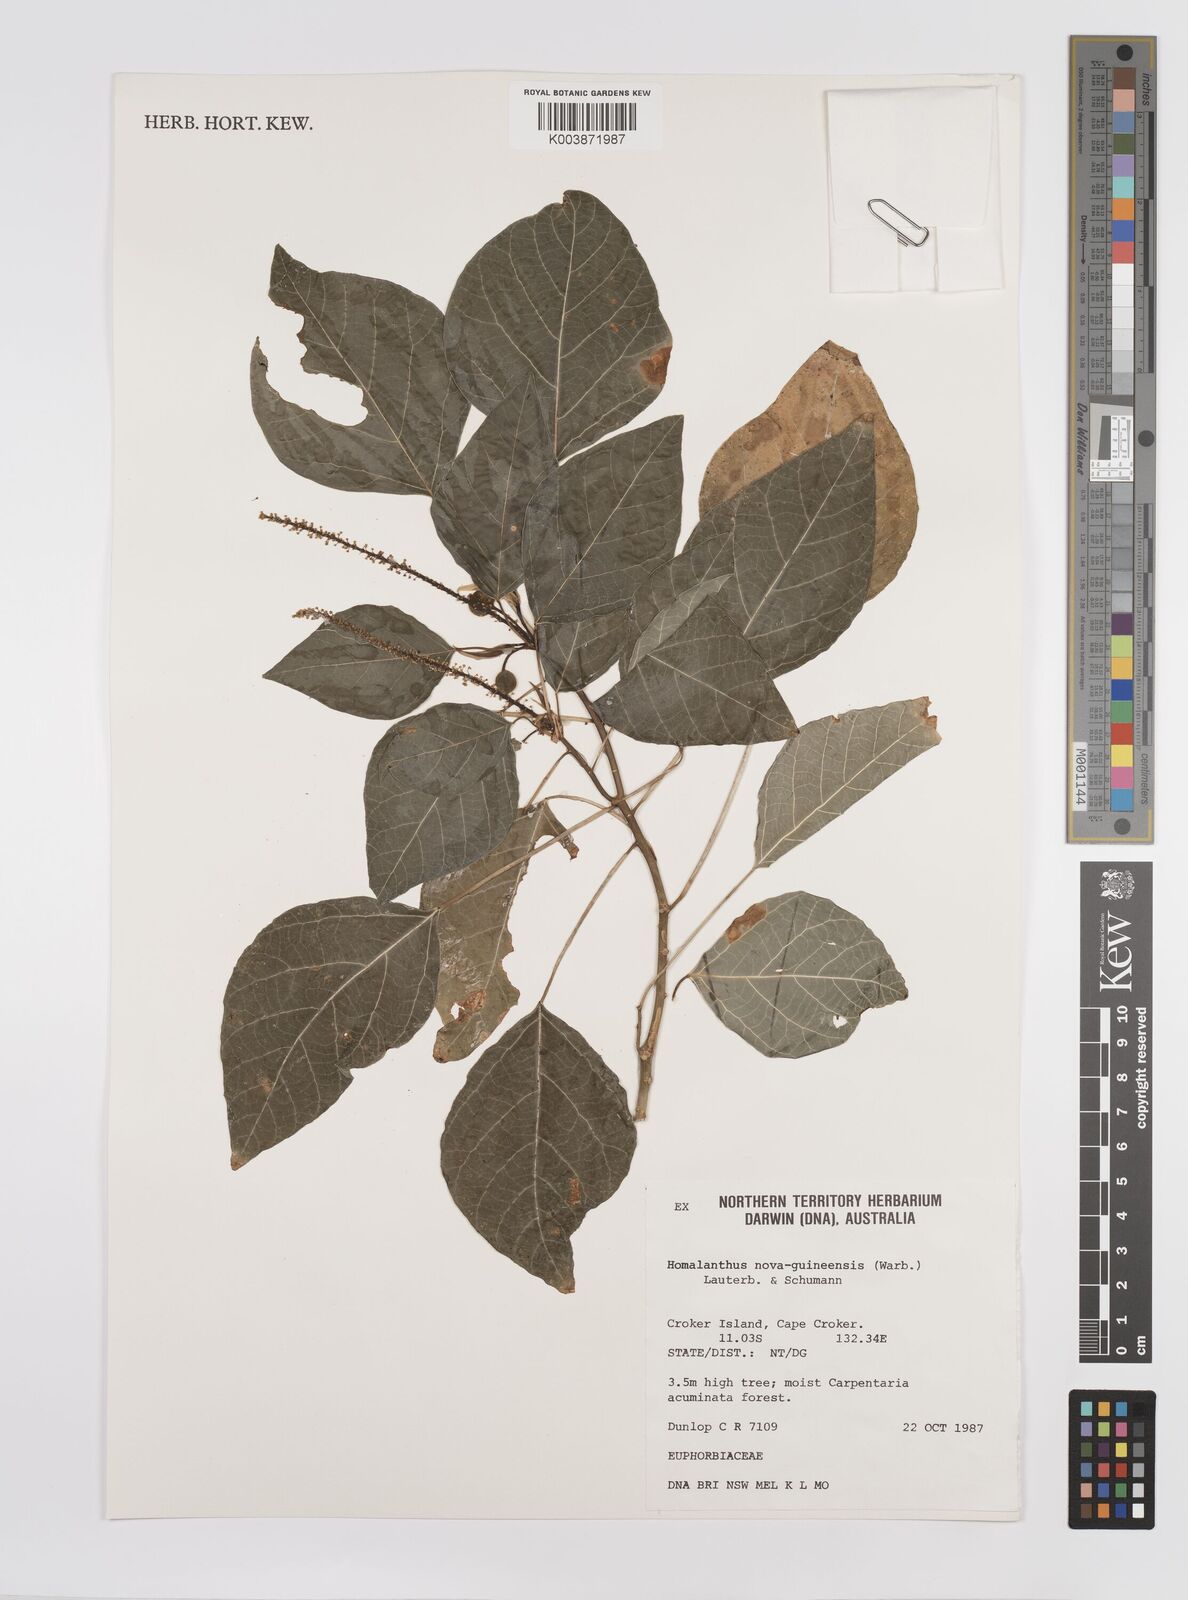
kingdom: Plantae
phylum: Tracheophyta
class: Magnoliopsida
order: Malpighiales
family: Euphorbiaceae
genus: Homalanthus
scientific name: Homalanthus novoguineensis
